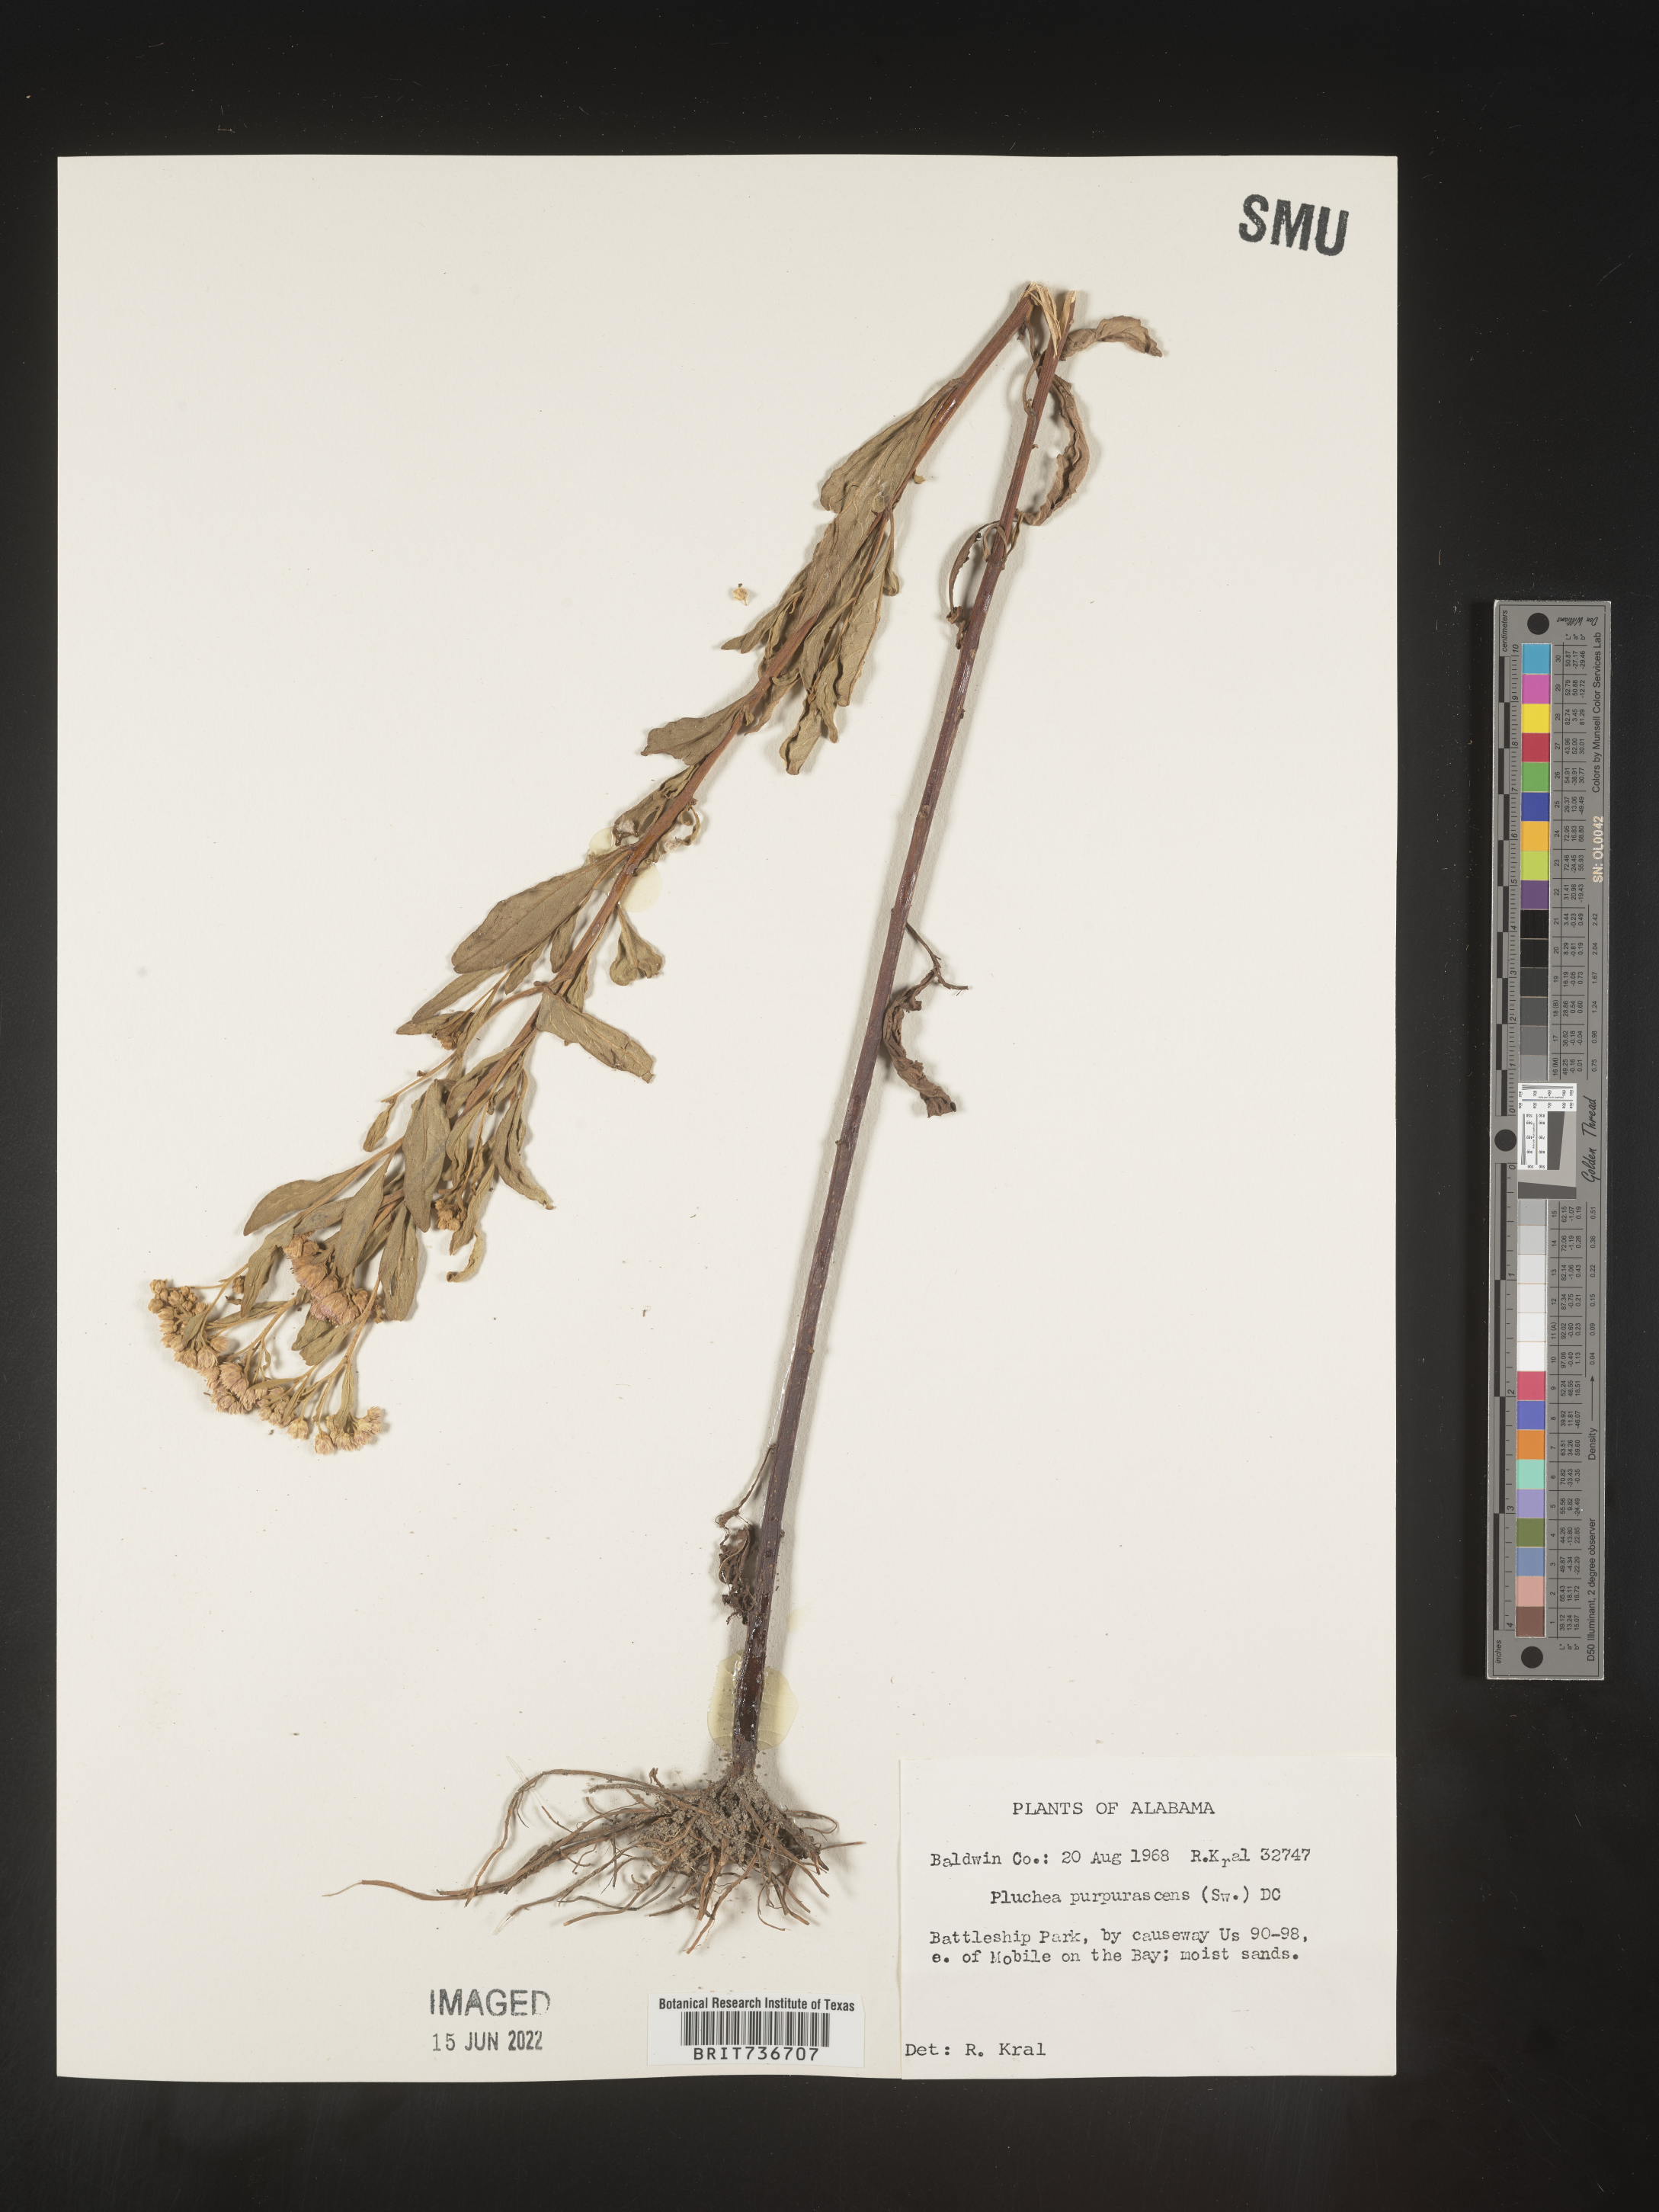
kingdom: Plantae
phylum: Tracheophyta
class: Magnoliopsida
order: Asterales
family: Asteraceae
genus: Pluchea
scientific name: Pluchea odorata
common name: Saltmarsh fleabane
